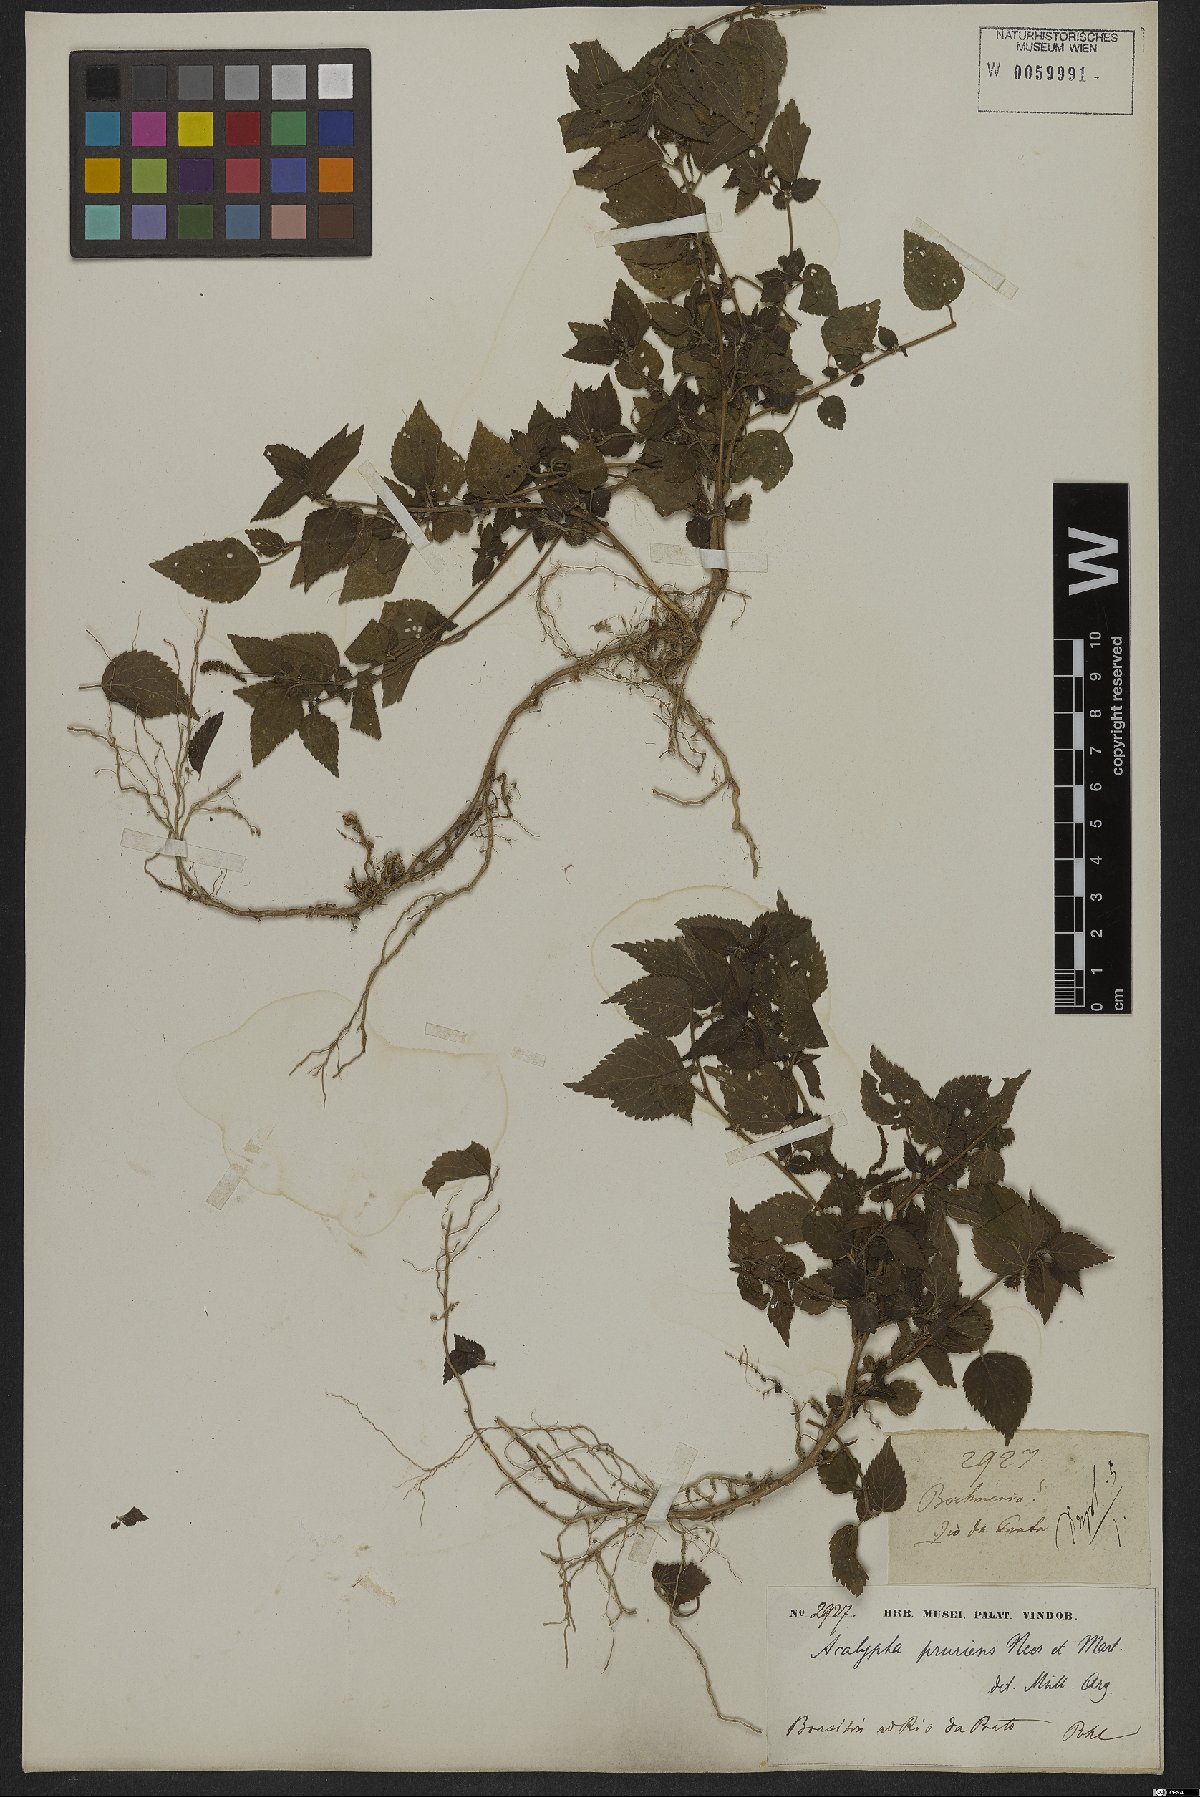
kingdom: Plantae
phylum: Tracheophyta
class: Magnoliopsida
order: Malpighiales
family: Euphorbiaceae
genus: Acalypha
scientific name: Acalypha pruriens
